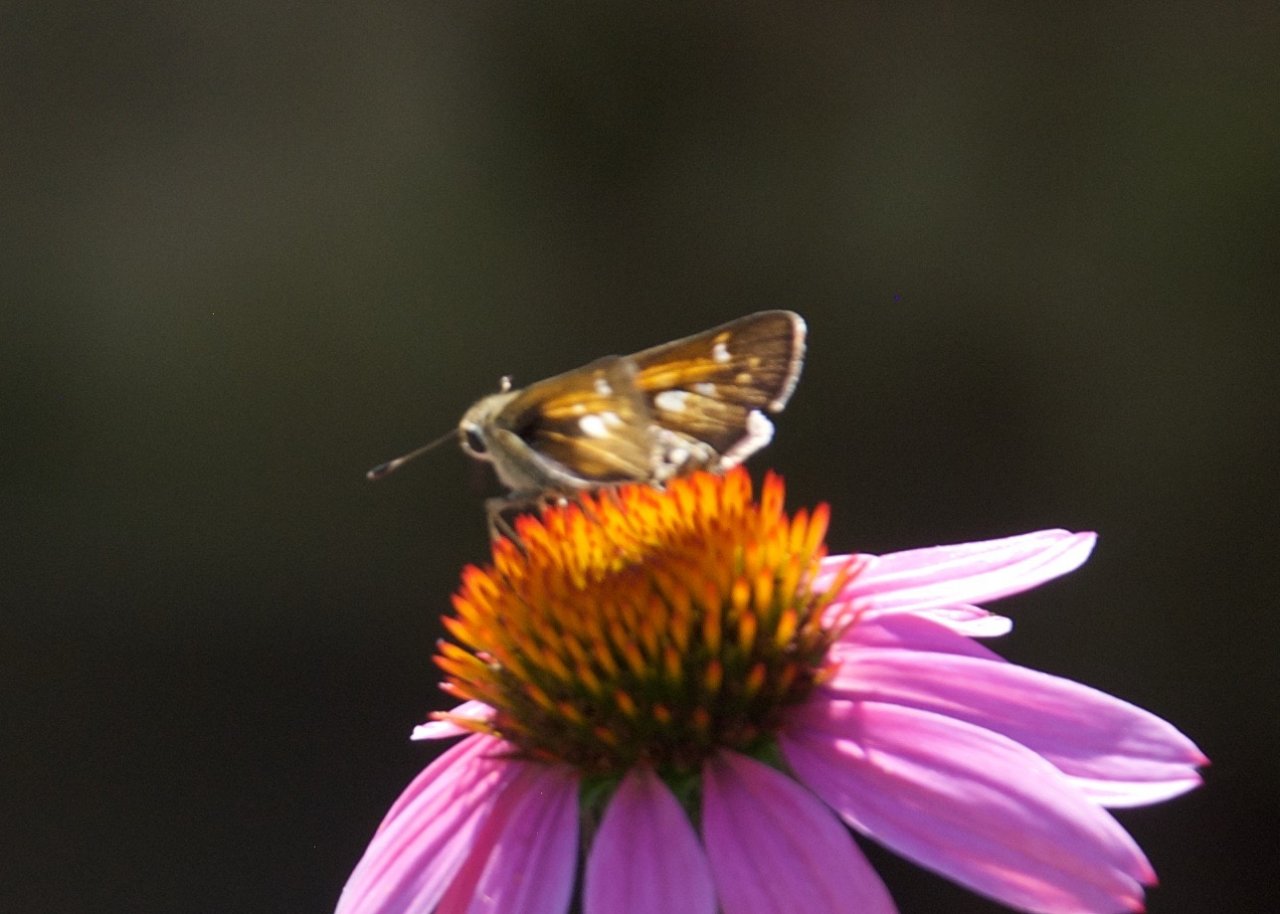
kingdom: Animalia
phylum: Arthropoda
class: Insecta
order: Lepidoptera
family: Hesperiidae
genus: Atalopedes
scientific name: Atalopedes campestris
